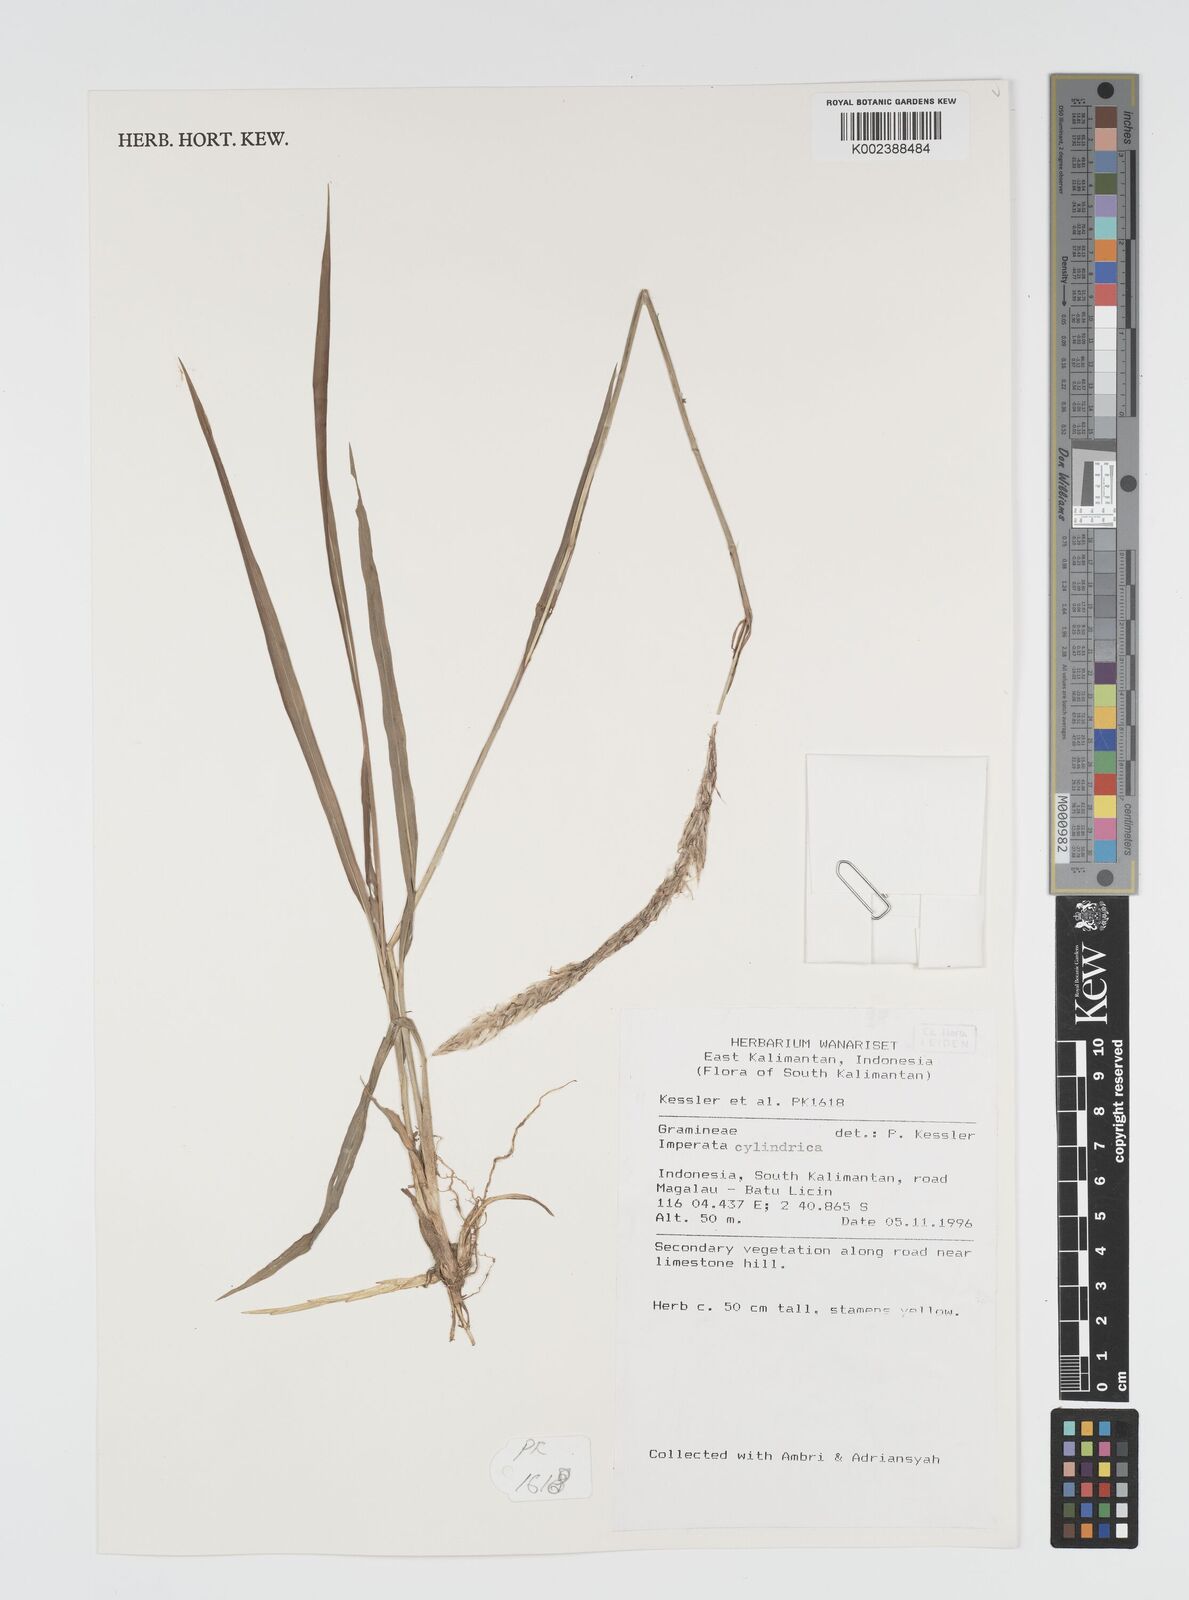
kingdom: Plantae
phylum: Tracheophyta
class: Liliopsida
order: Poales
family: Poaceae
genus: Imperata
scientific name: Imperata cylindrica
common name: Cogongrass
